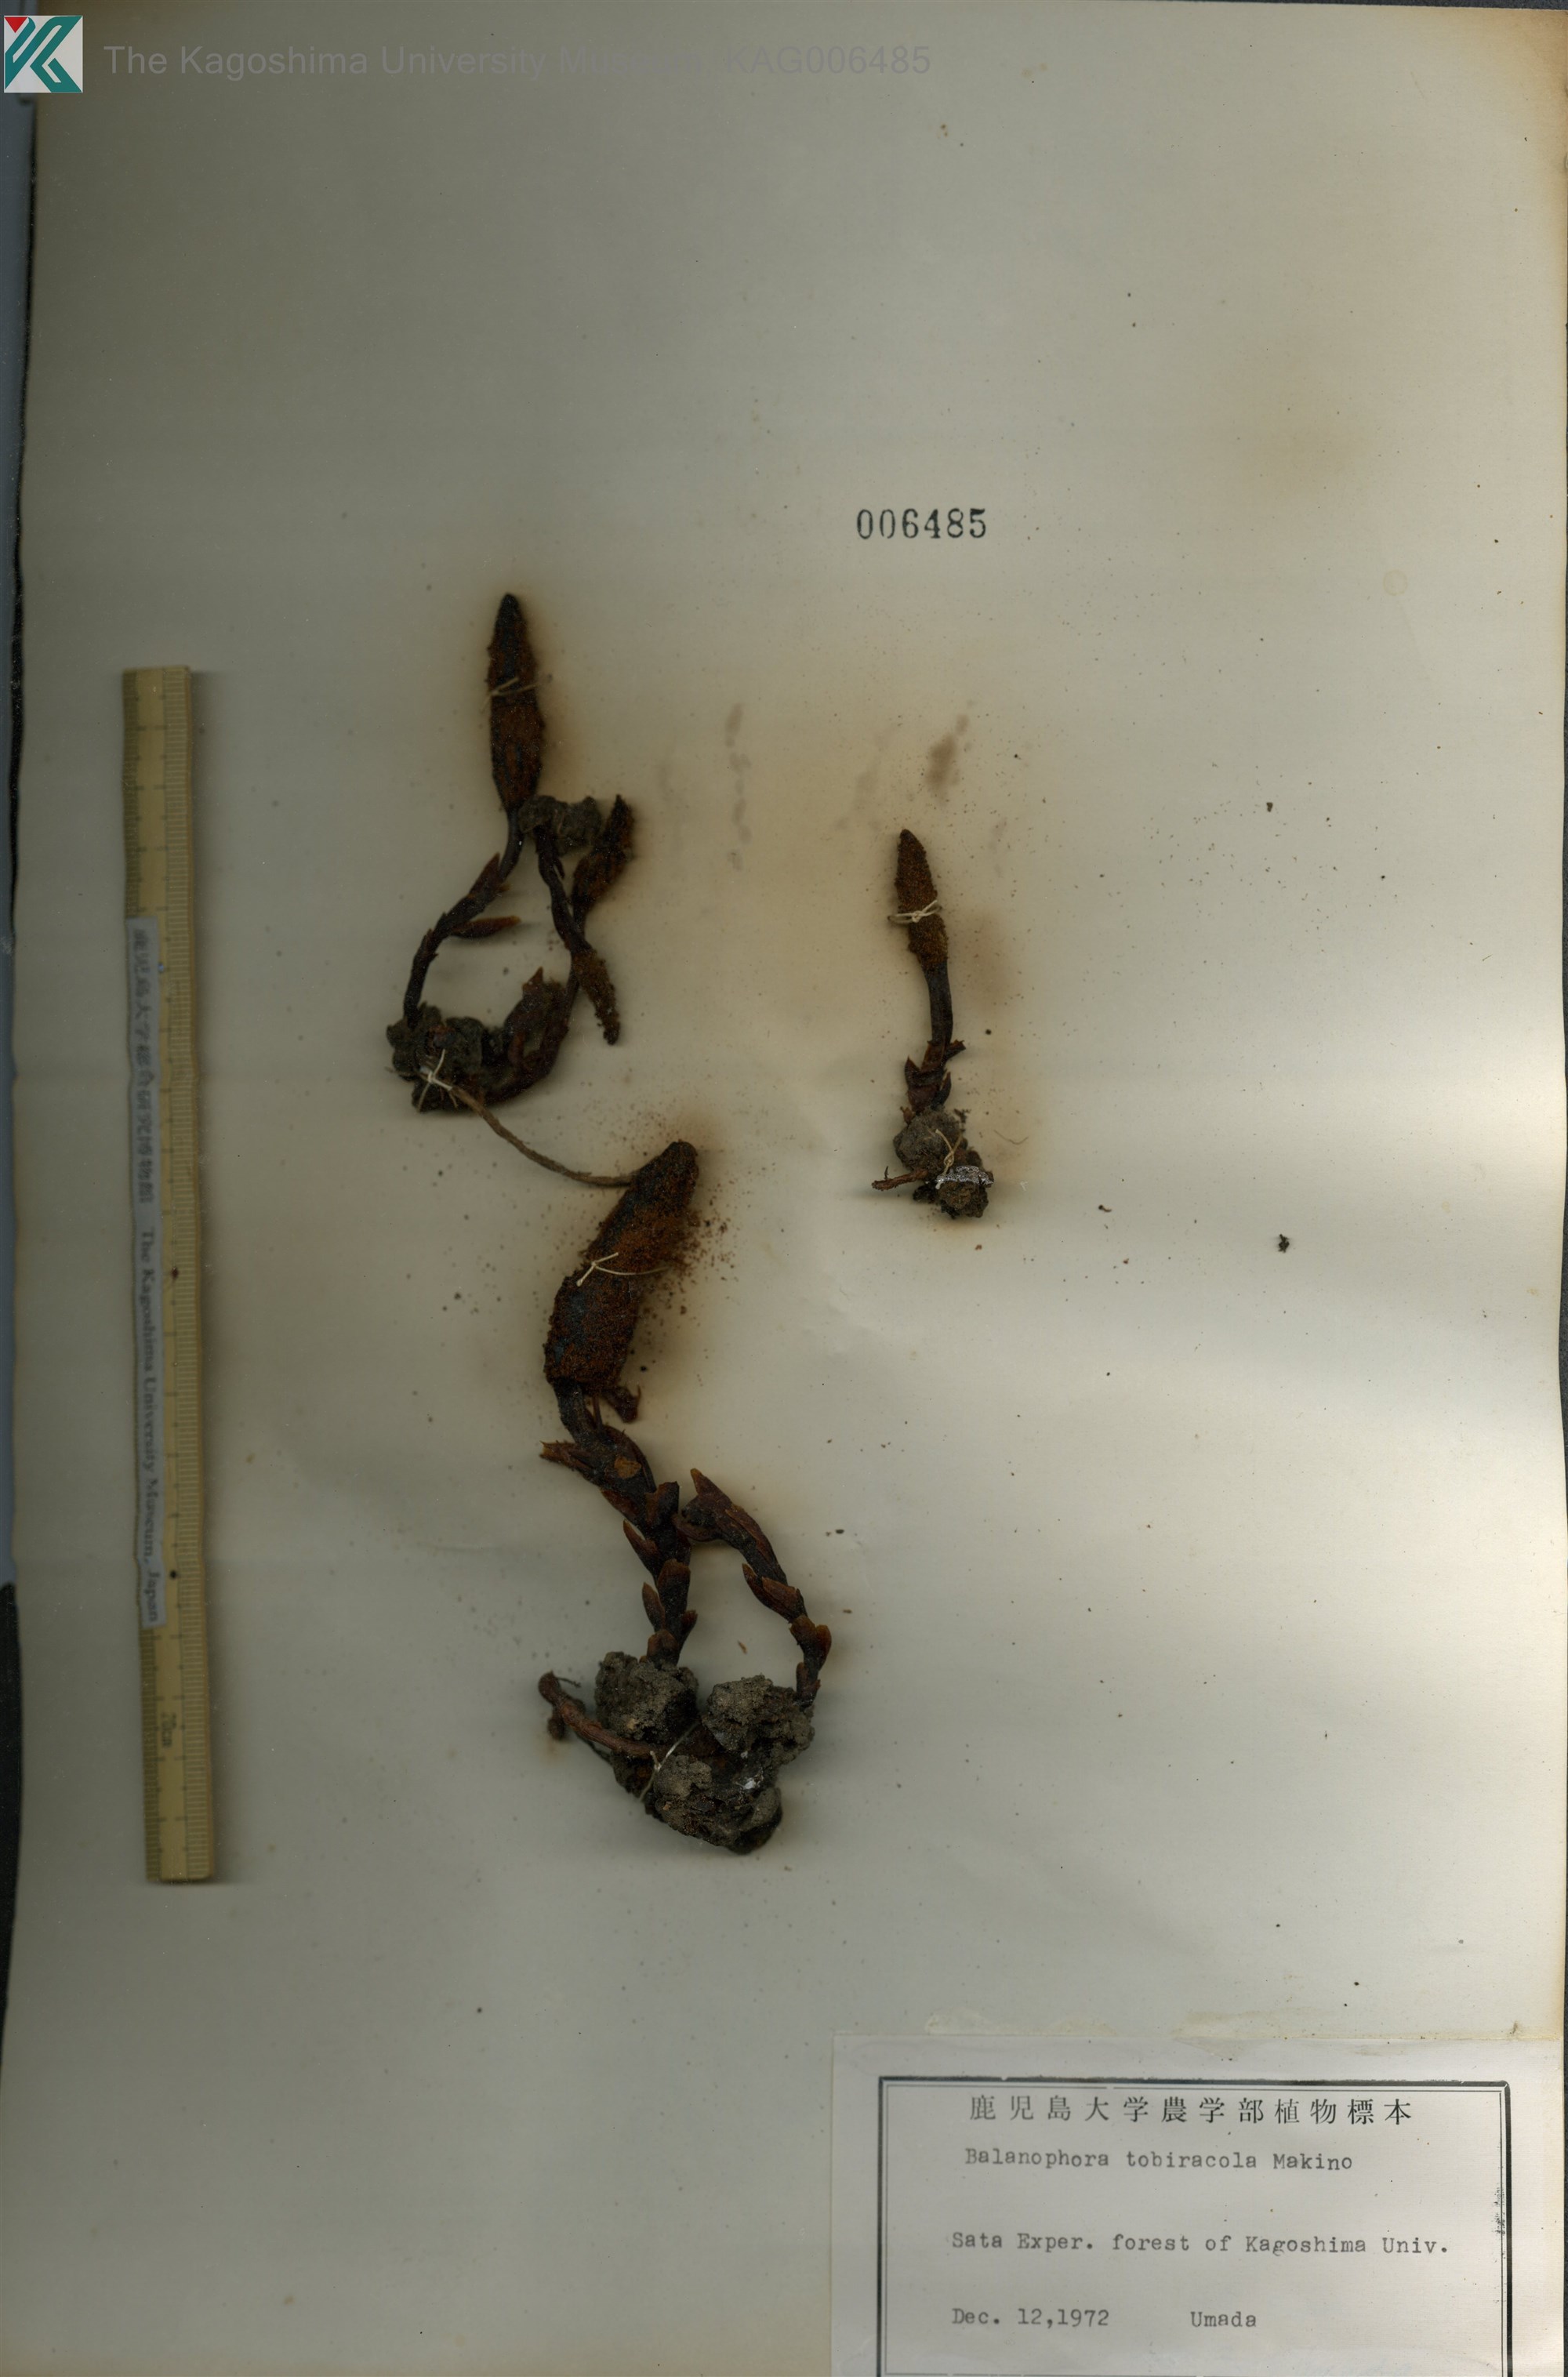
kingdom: Plantae
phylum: Tracheophyta
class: Magnoliopsida
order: Santalales
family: Balanophoraceae
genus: Balanophora
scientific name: Balanophora tobiracola
